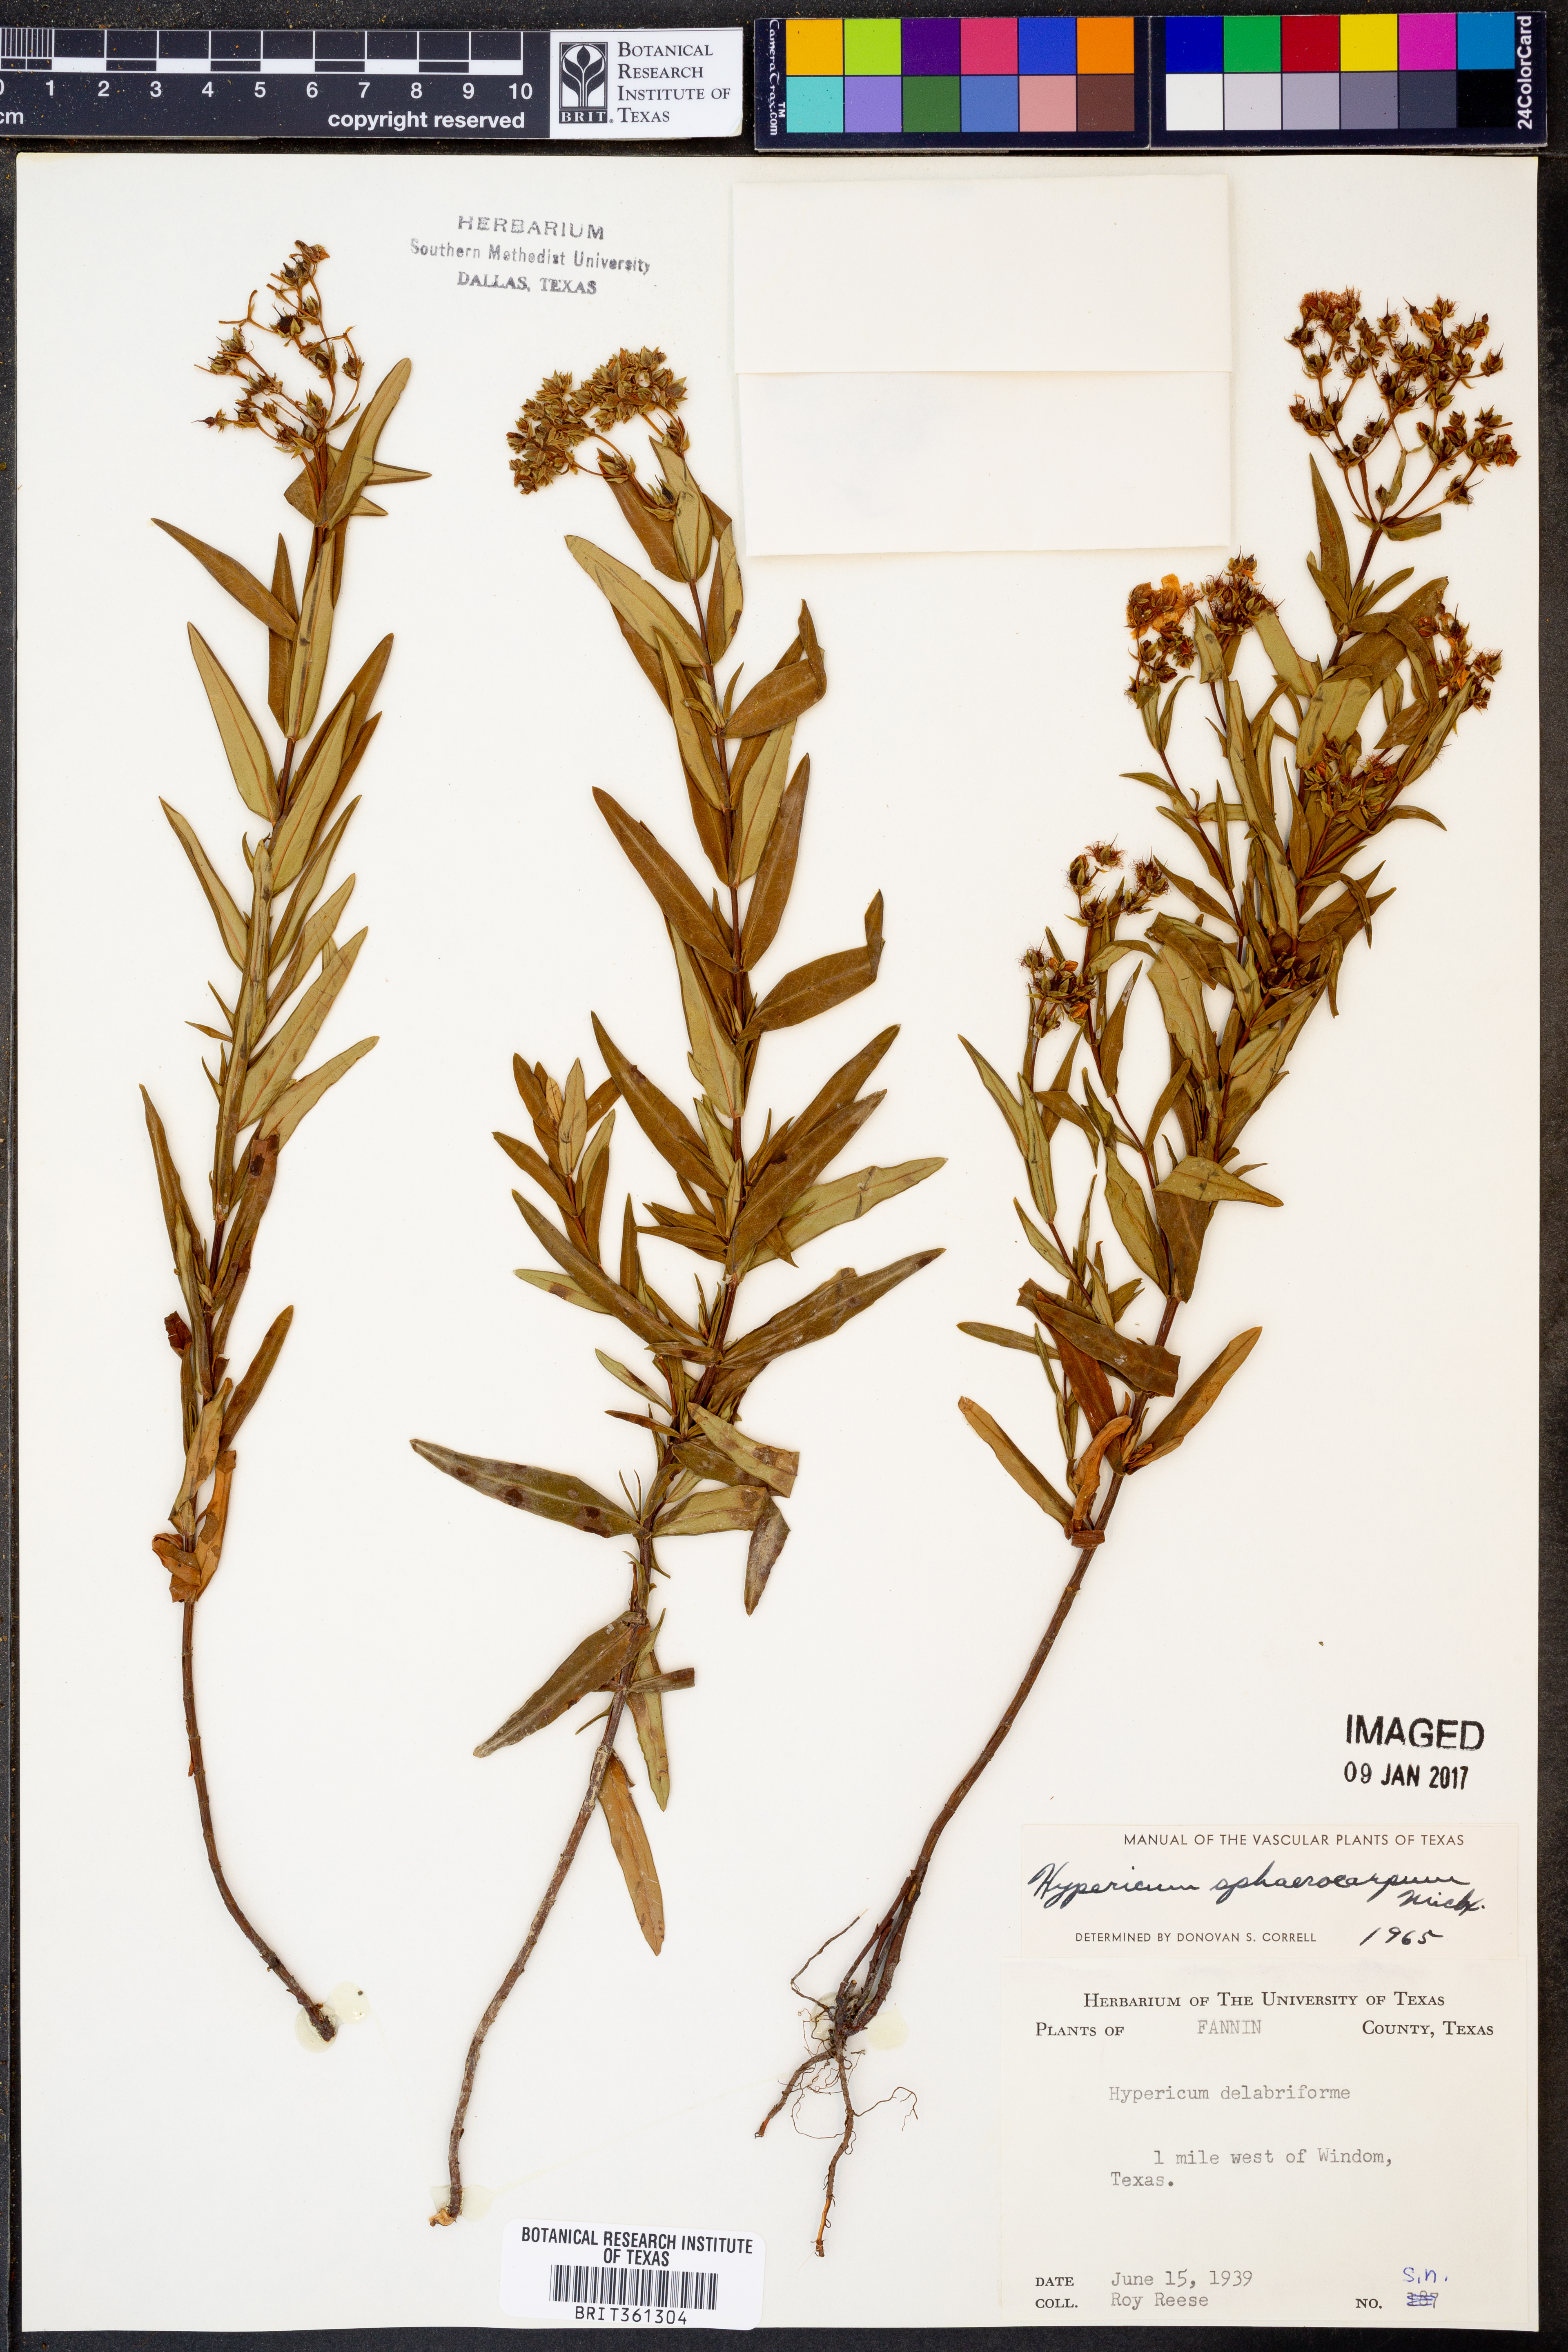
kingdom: Plantae
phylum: Tracheophyta
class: Magnoliopsida
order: Malpighiales
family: Hypericaceae
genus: Hypericum
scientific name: Hypericum sphaerocarpum
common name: Round-fruited st. john's-wort
